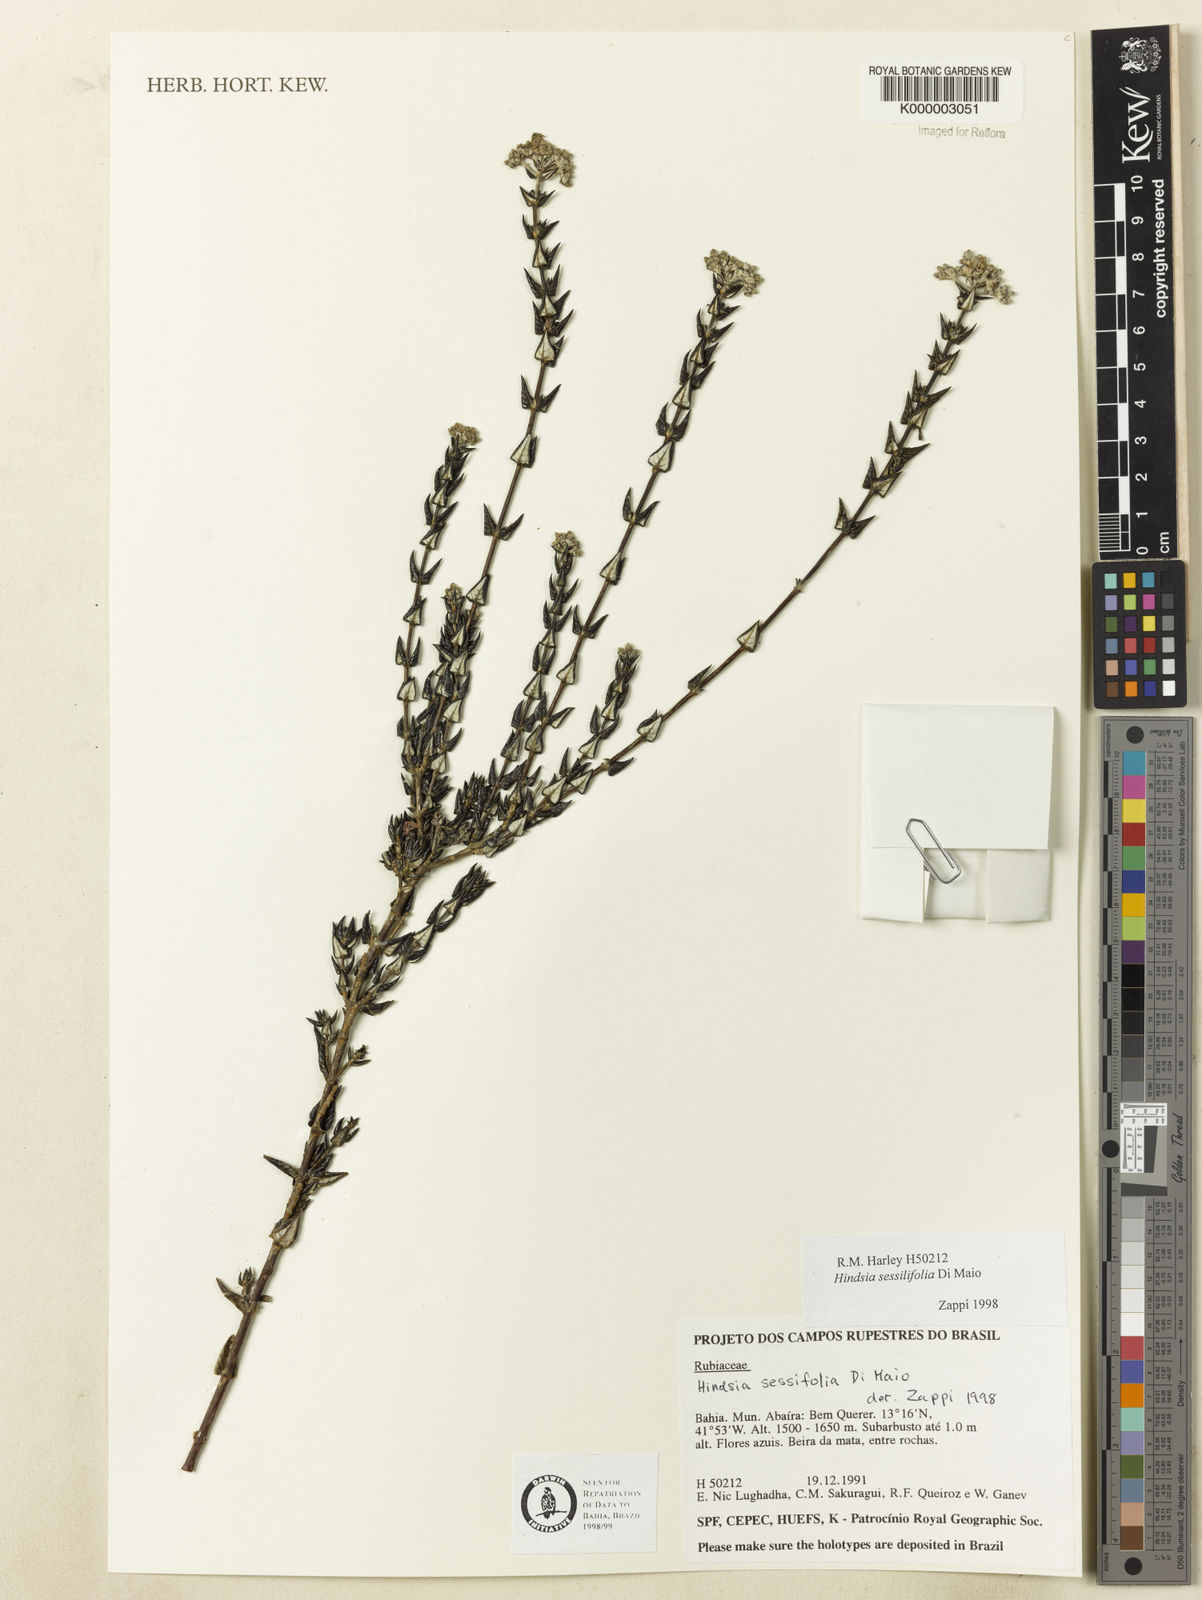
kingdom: Plantae
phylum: Tracheophyta
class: Magnoliopsida
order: Gentianales
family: Rubiaceae
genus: Hindsia
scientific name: Hindsia sessilifolia
